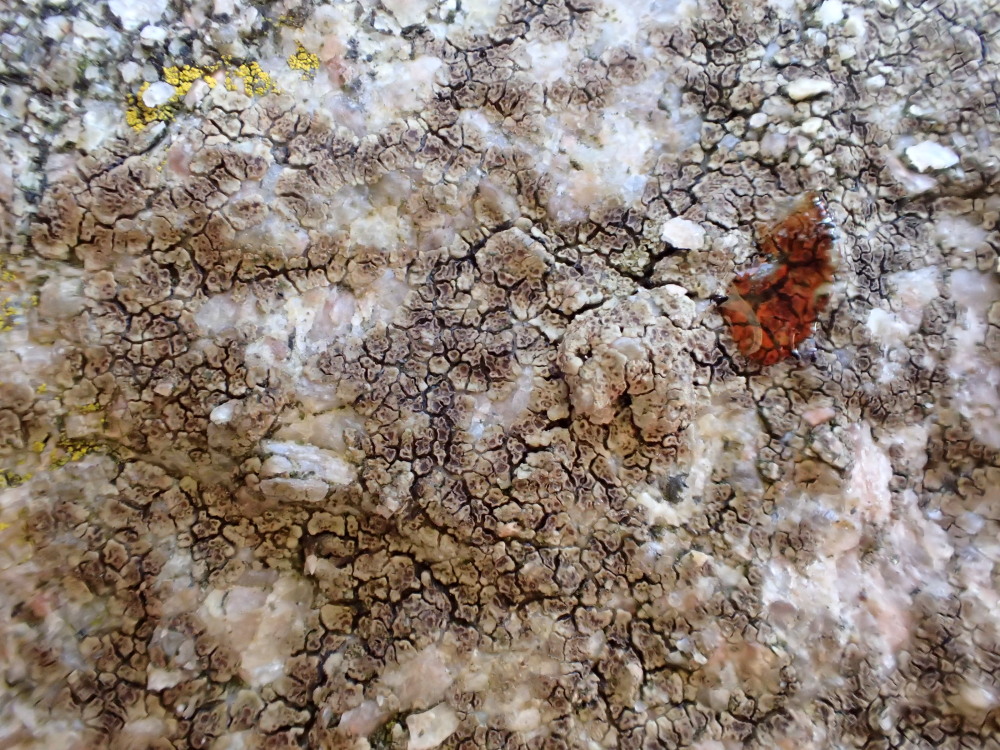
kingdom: Fungi
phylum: Ascomycota
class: Lecanoromycetes
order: Acarosporales
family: Acarosporaceae
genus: Acarospora
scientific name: Acarospora fuscata
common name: brun småsporelav
